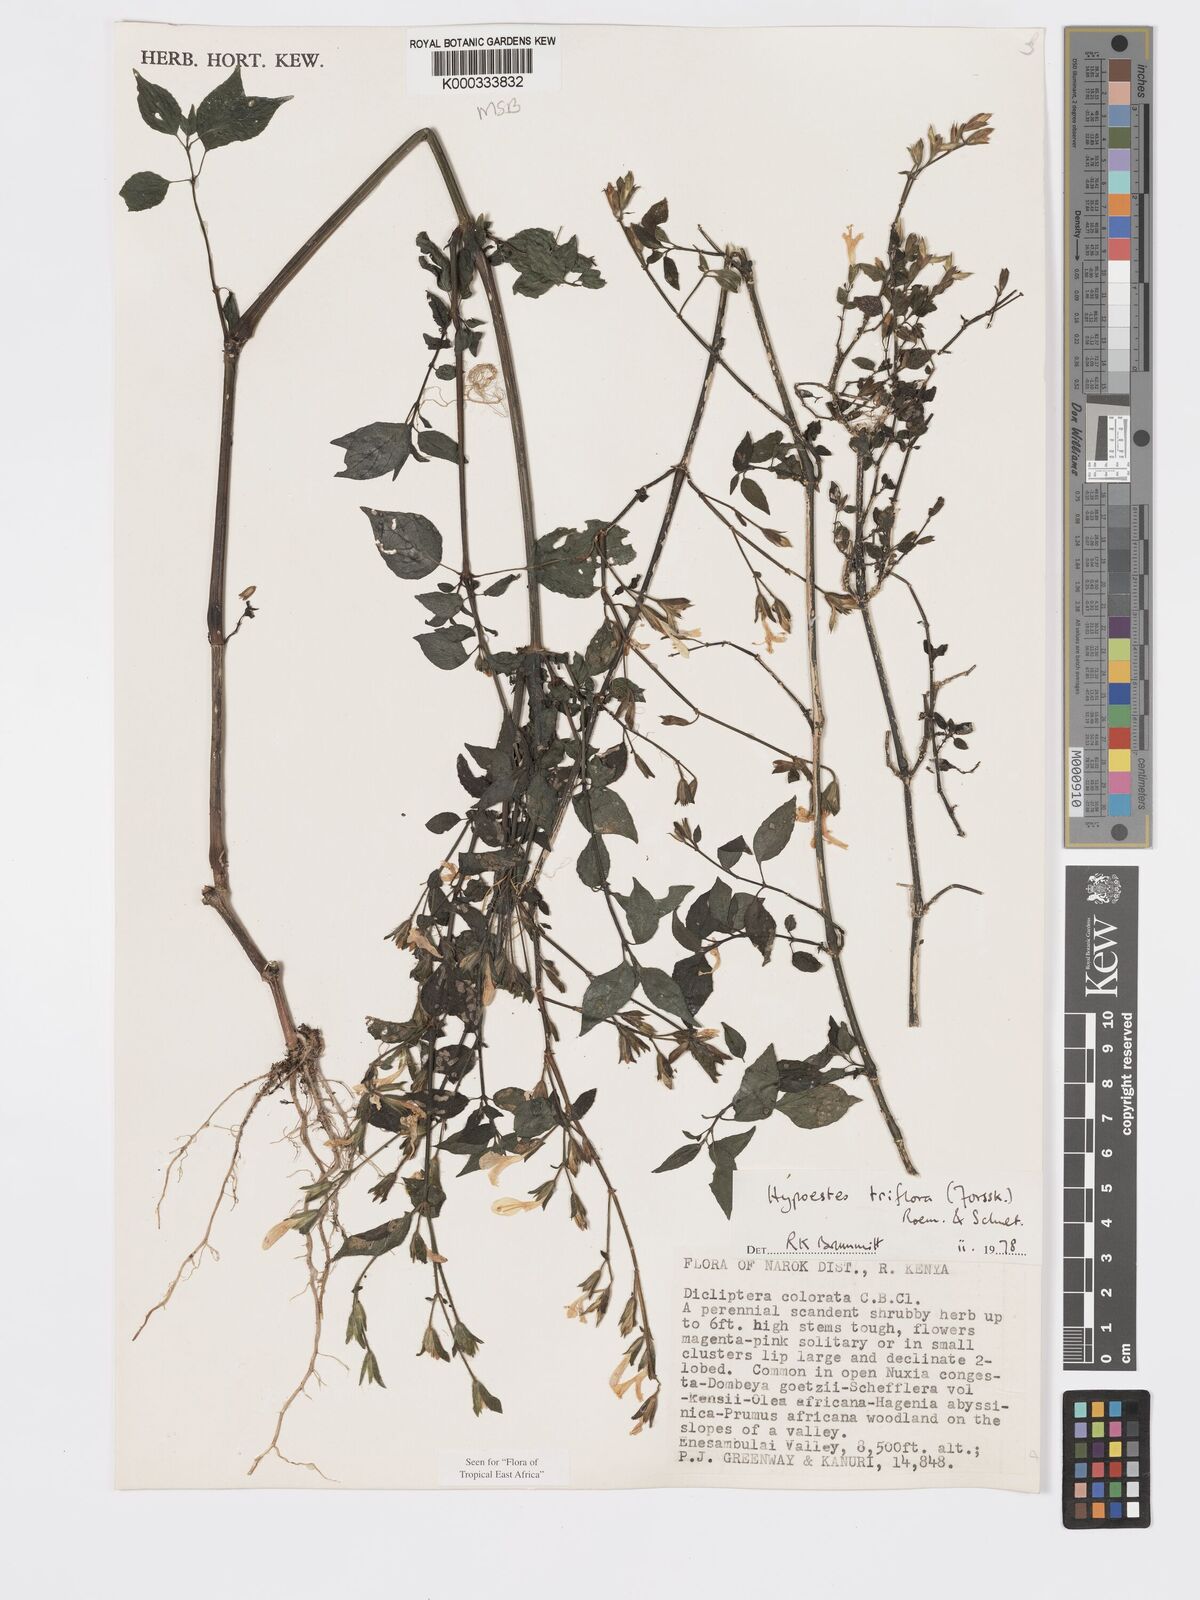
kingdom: Plantae
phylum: Tracheophyta
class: Magnoliopsida
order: Lamiales
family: Acanthaceae
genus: Hypoestes
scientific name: Hypoestes triflora
